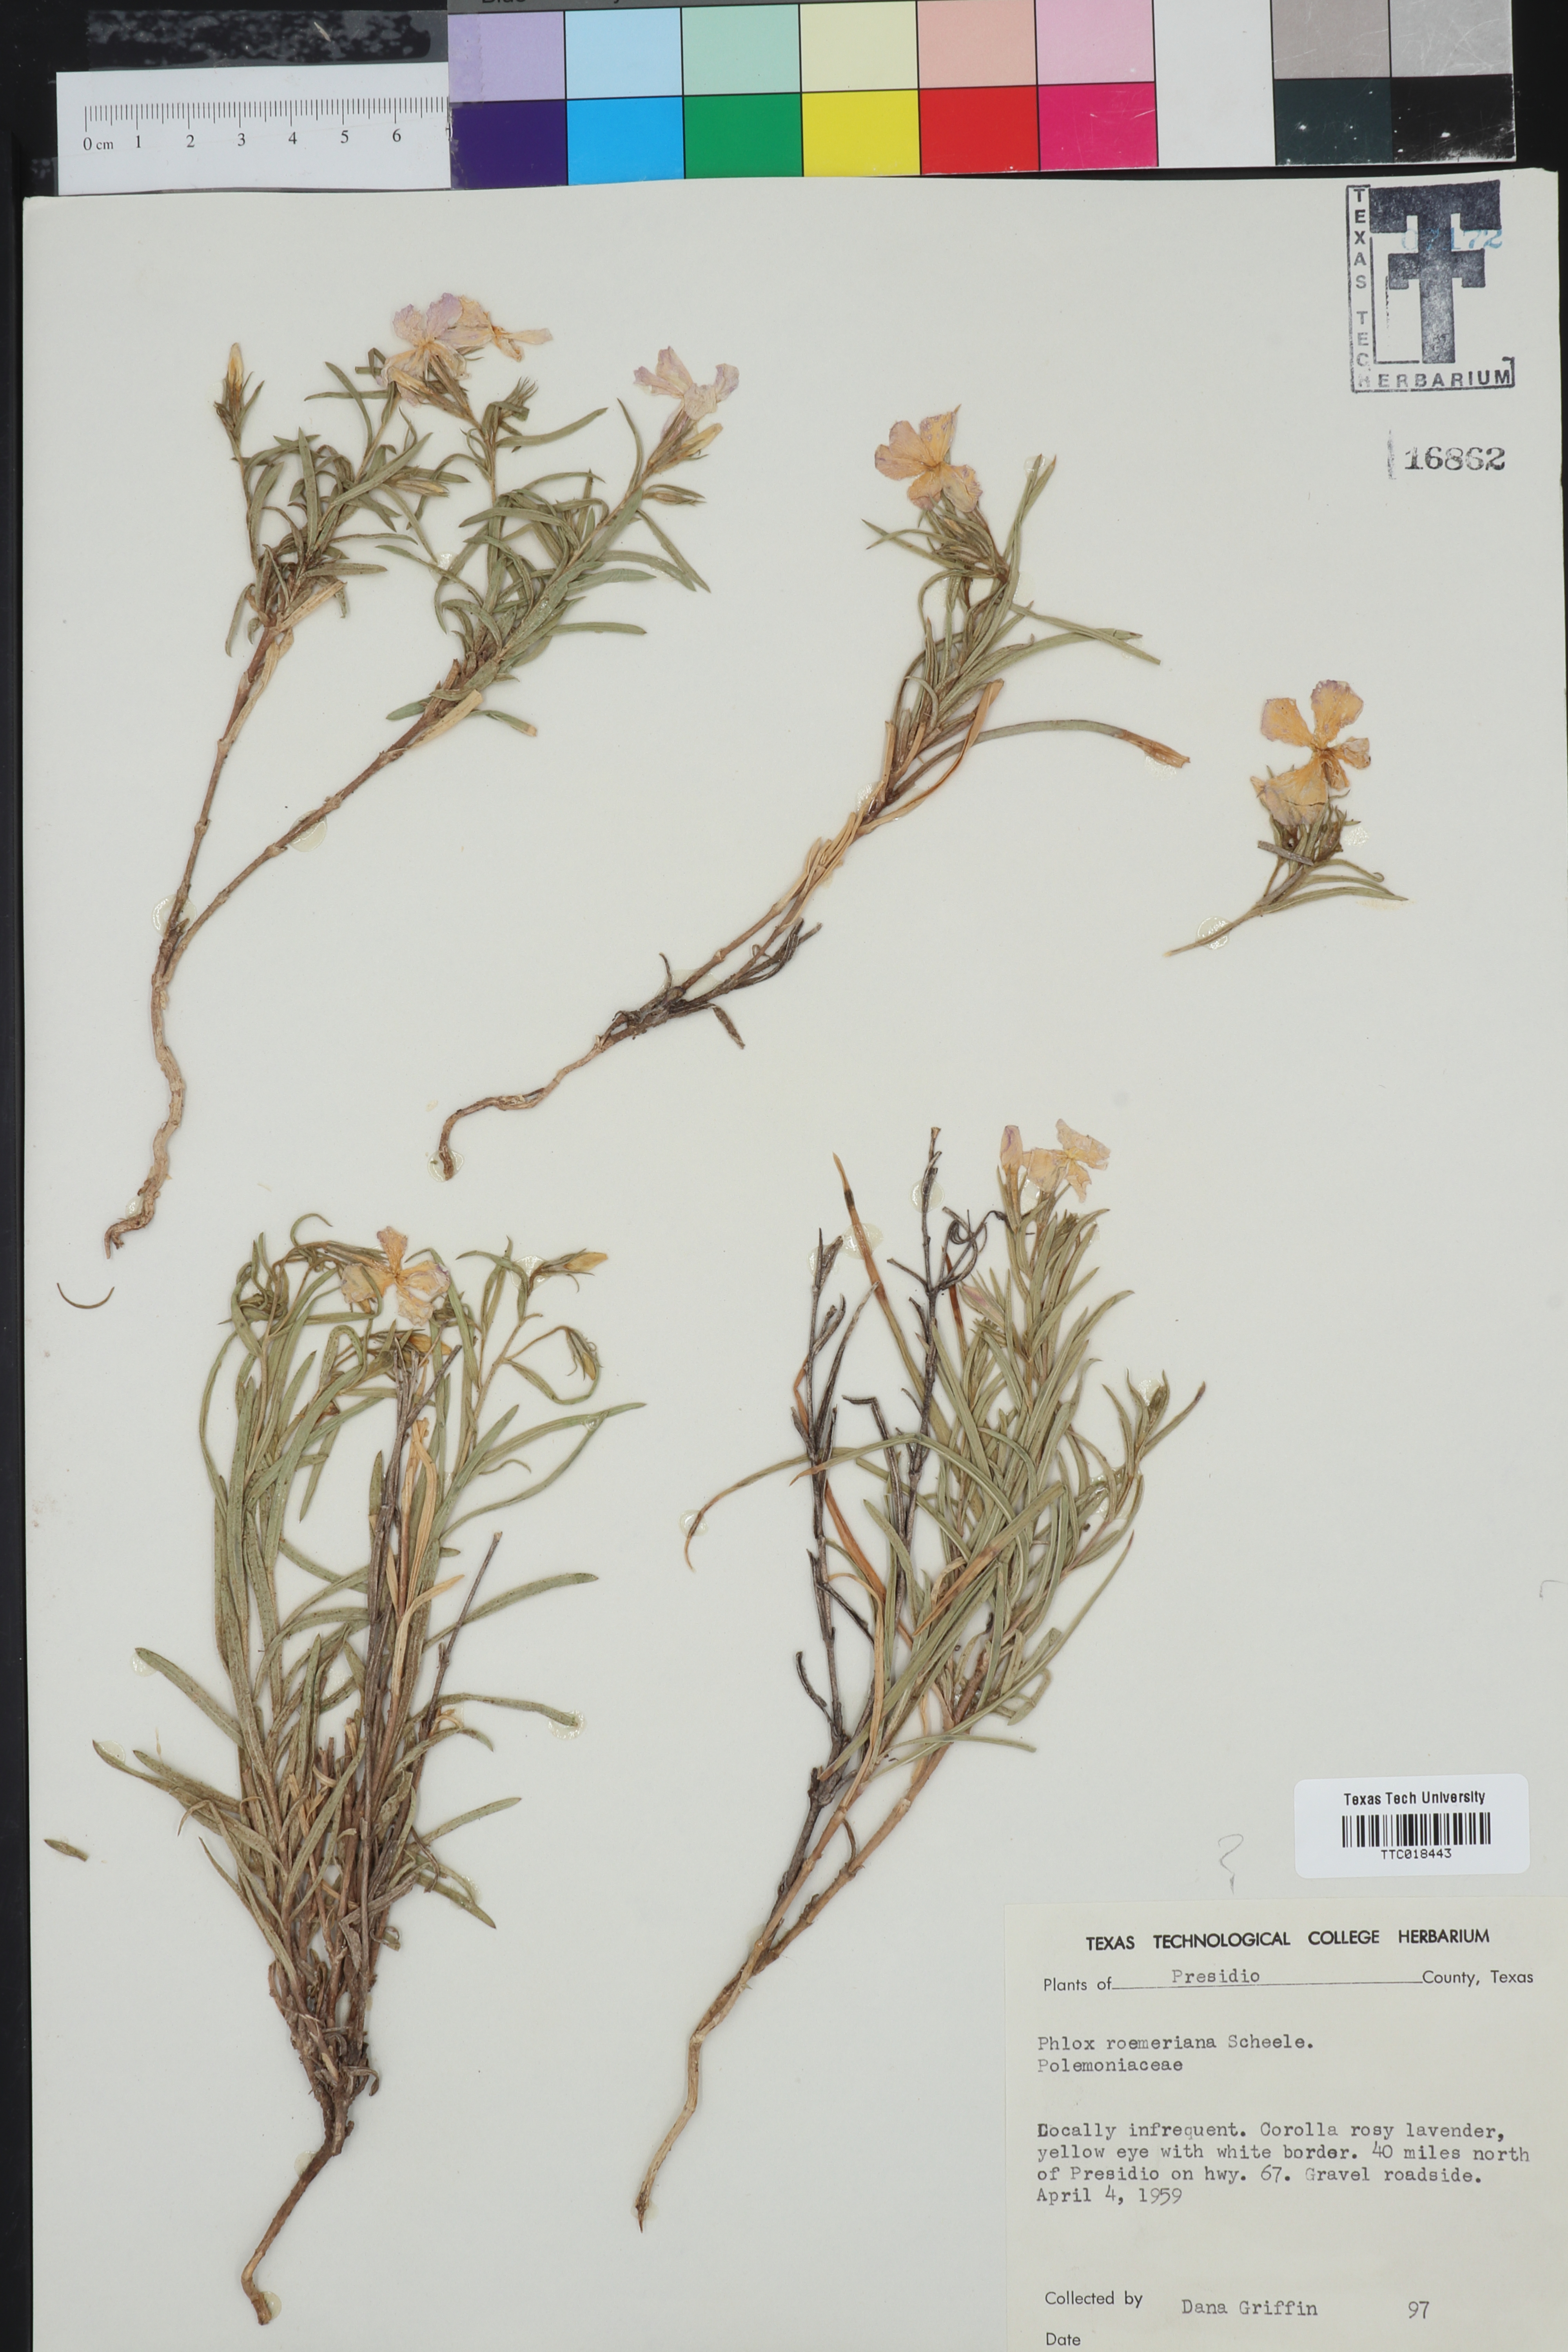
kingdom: Plantae
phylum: Tracheophyta
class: Magnoliopsida
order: Ericales
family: Polemoniaceae
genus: Phlox
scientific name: Phlox roemeriana
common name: Roemer's phlox
